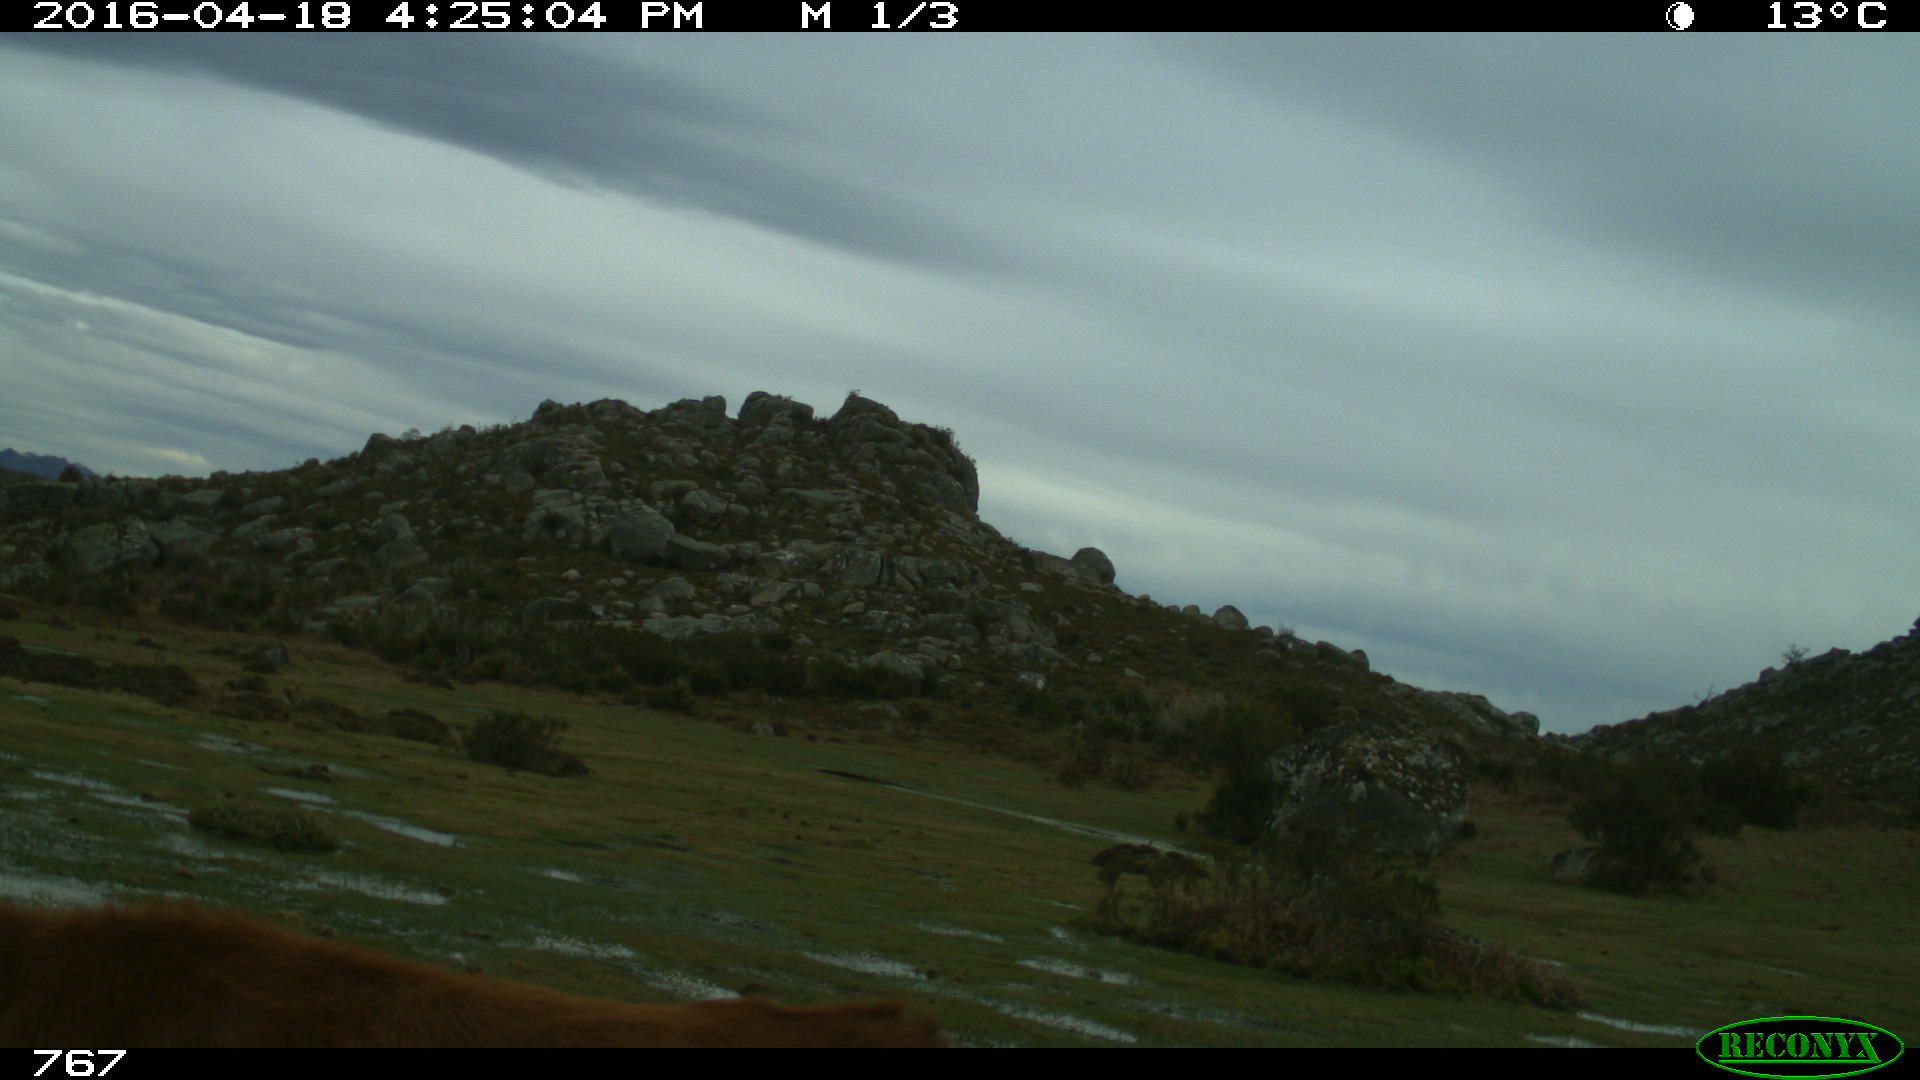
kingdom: Animalia
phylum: Chordata
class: Mammalia
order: Artiodactyla
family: Bovidae
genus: Bos
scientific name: Bos taurus
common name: Domesticated cattle
